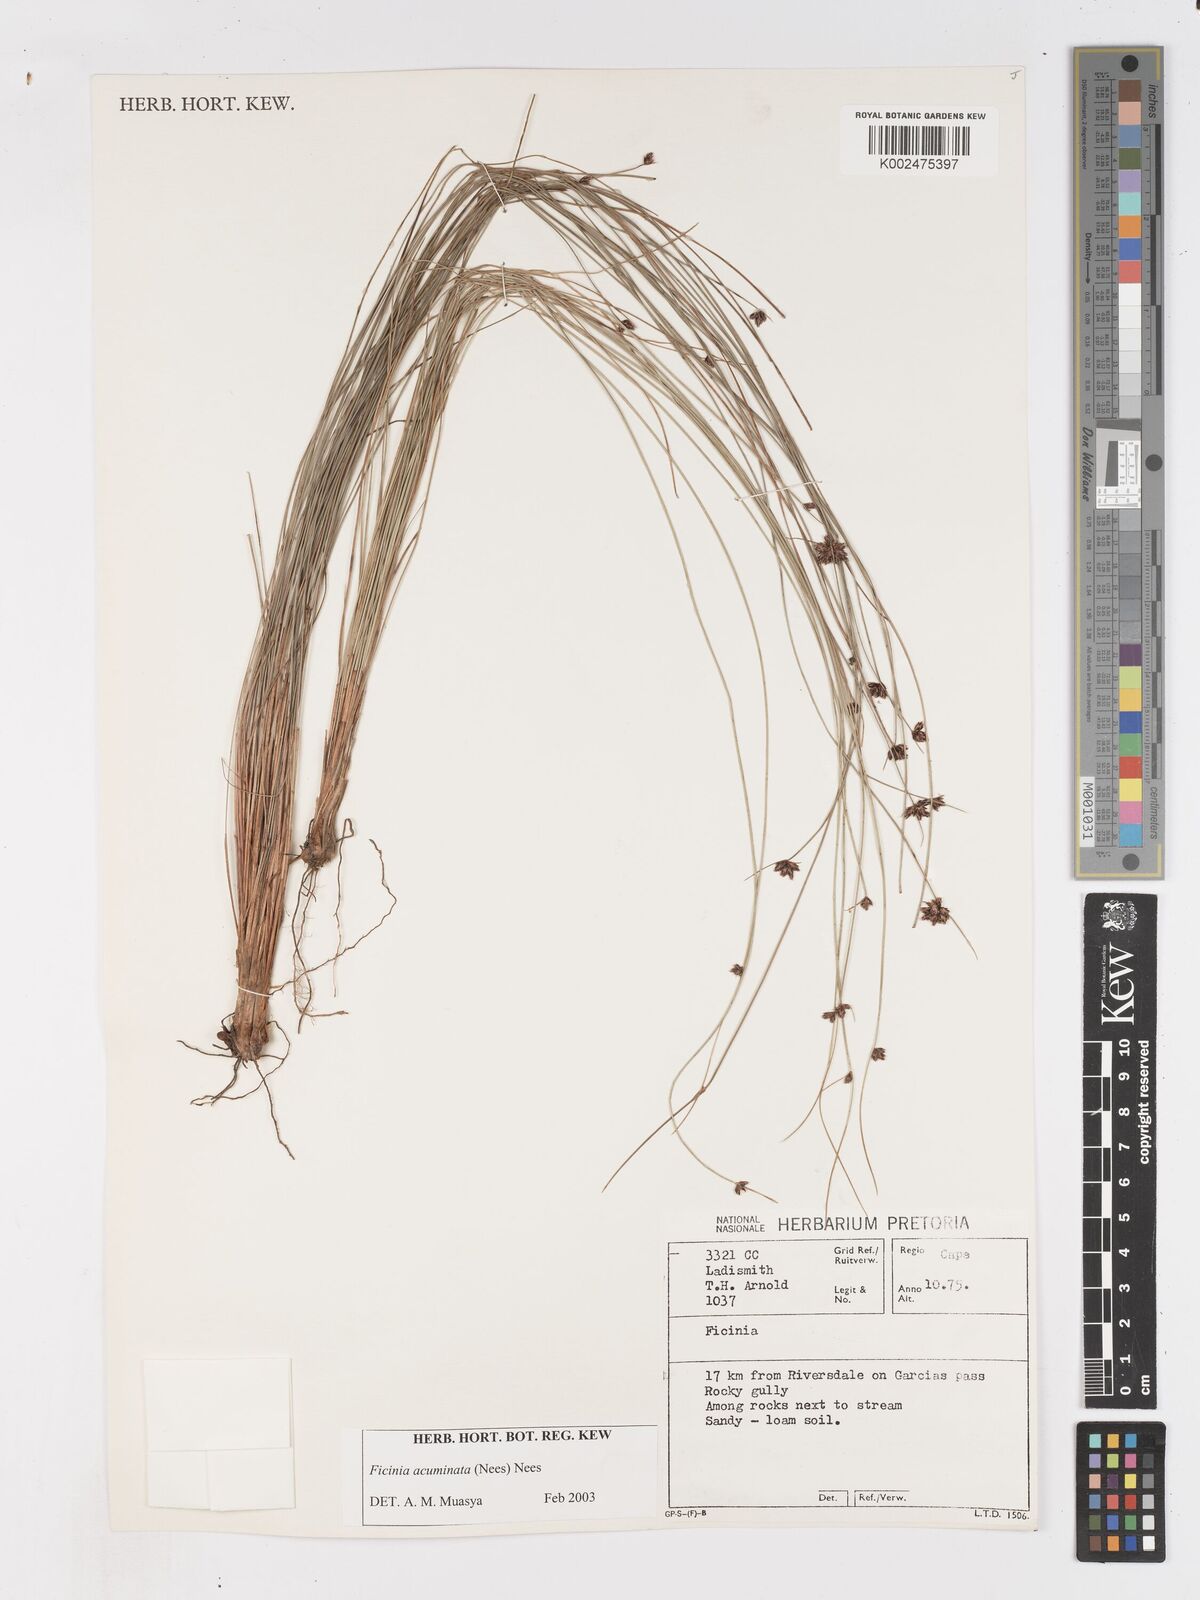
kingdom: Plantae
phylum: Tracheophyta
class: Liliopsida
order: Poales
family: Cyperaceae
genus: Ficinia
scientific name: Ficinia acuminata
